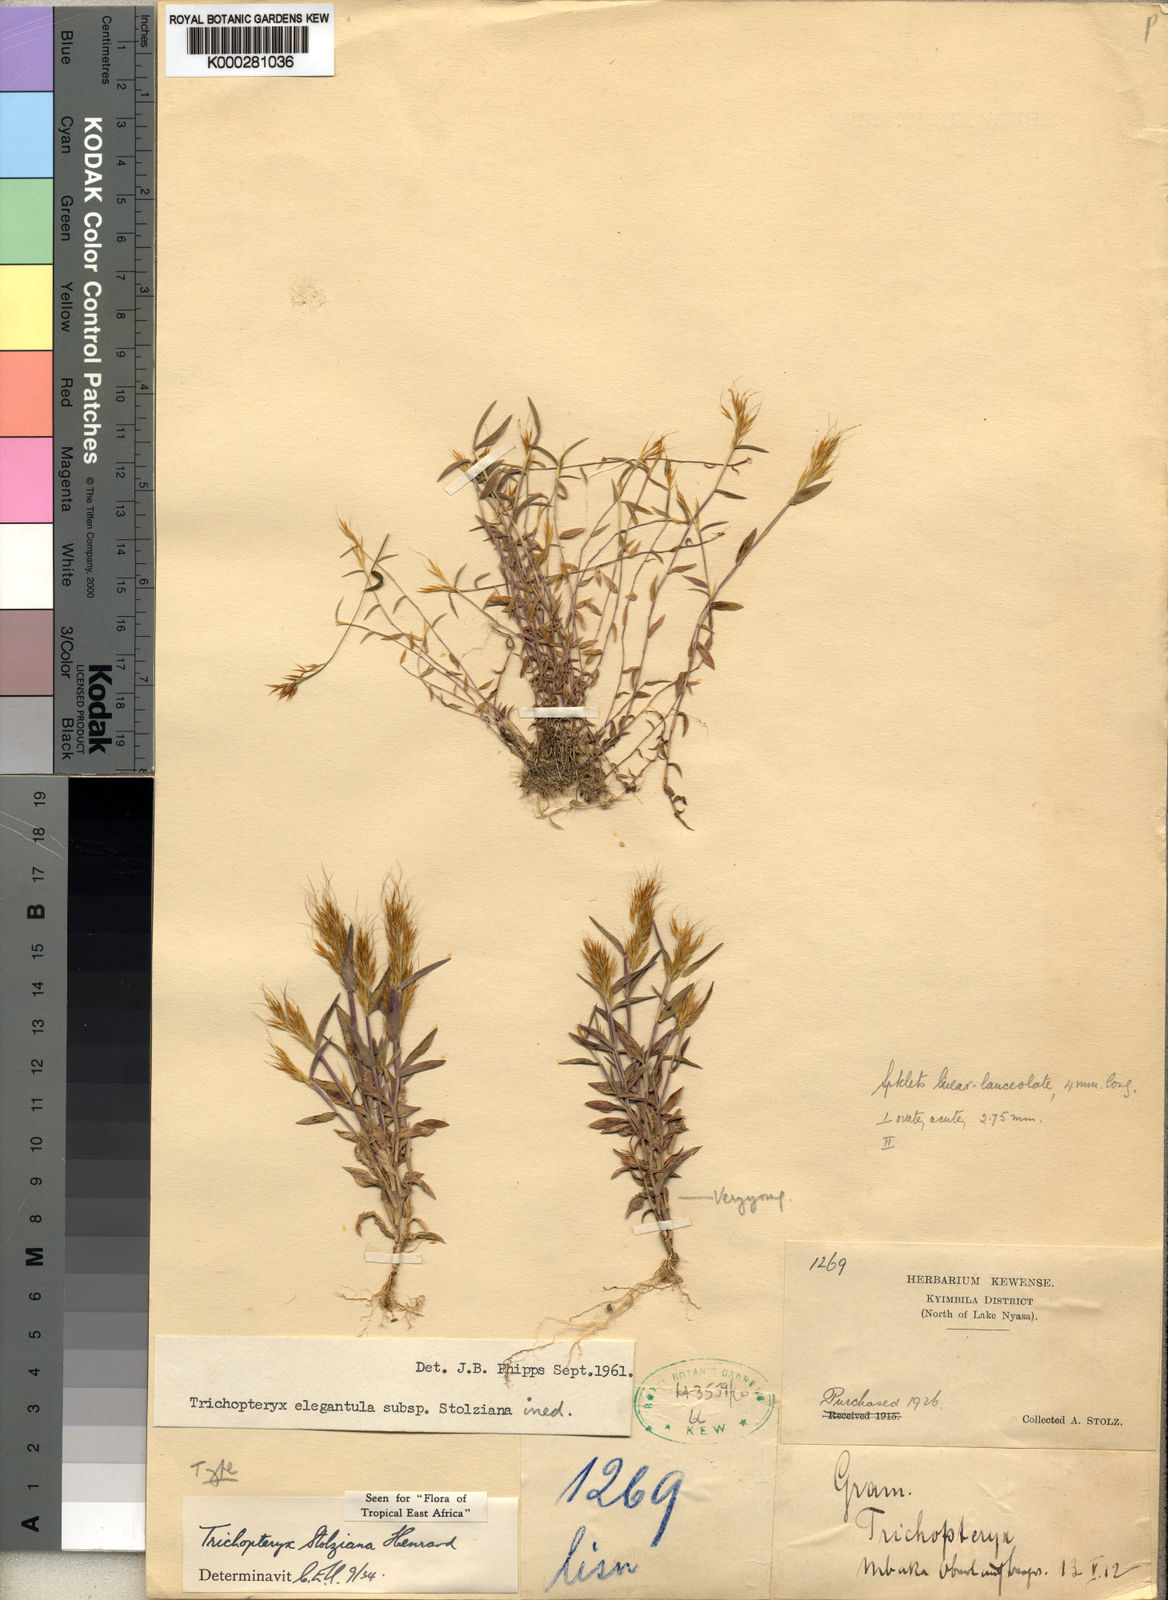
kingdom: Plantae
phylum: Tracheophyta
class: Liliopsida
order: Poales
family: Poaceae
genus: Trichopteryx
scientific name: Trichopteryx stolziana
